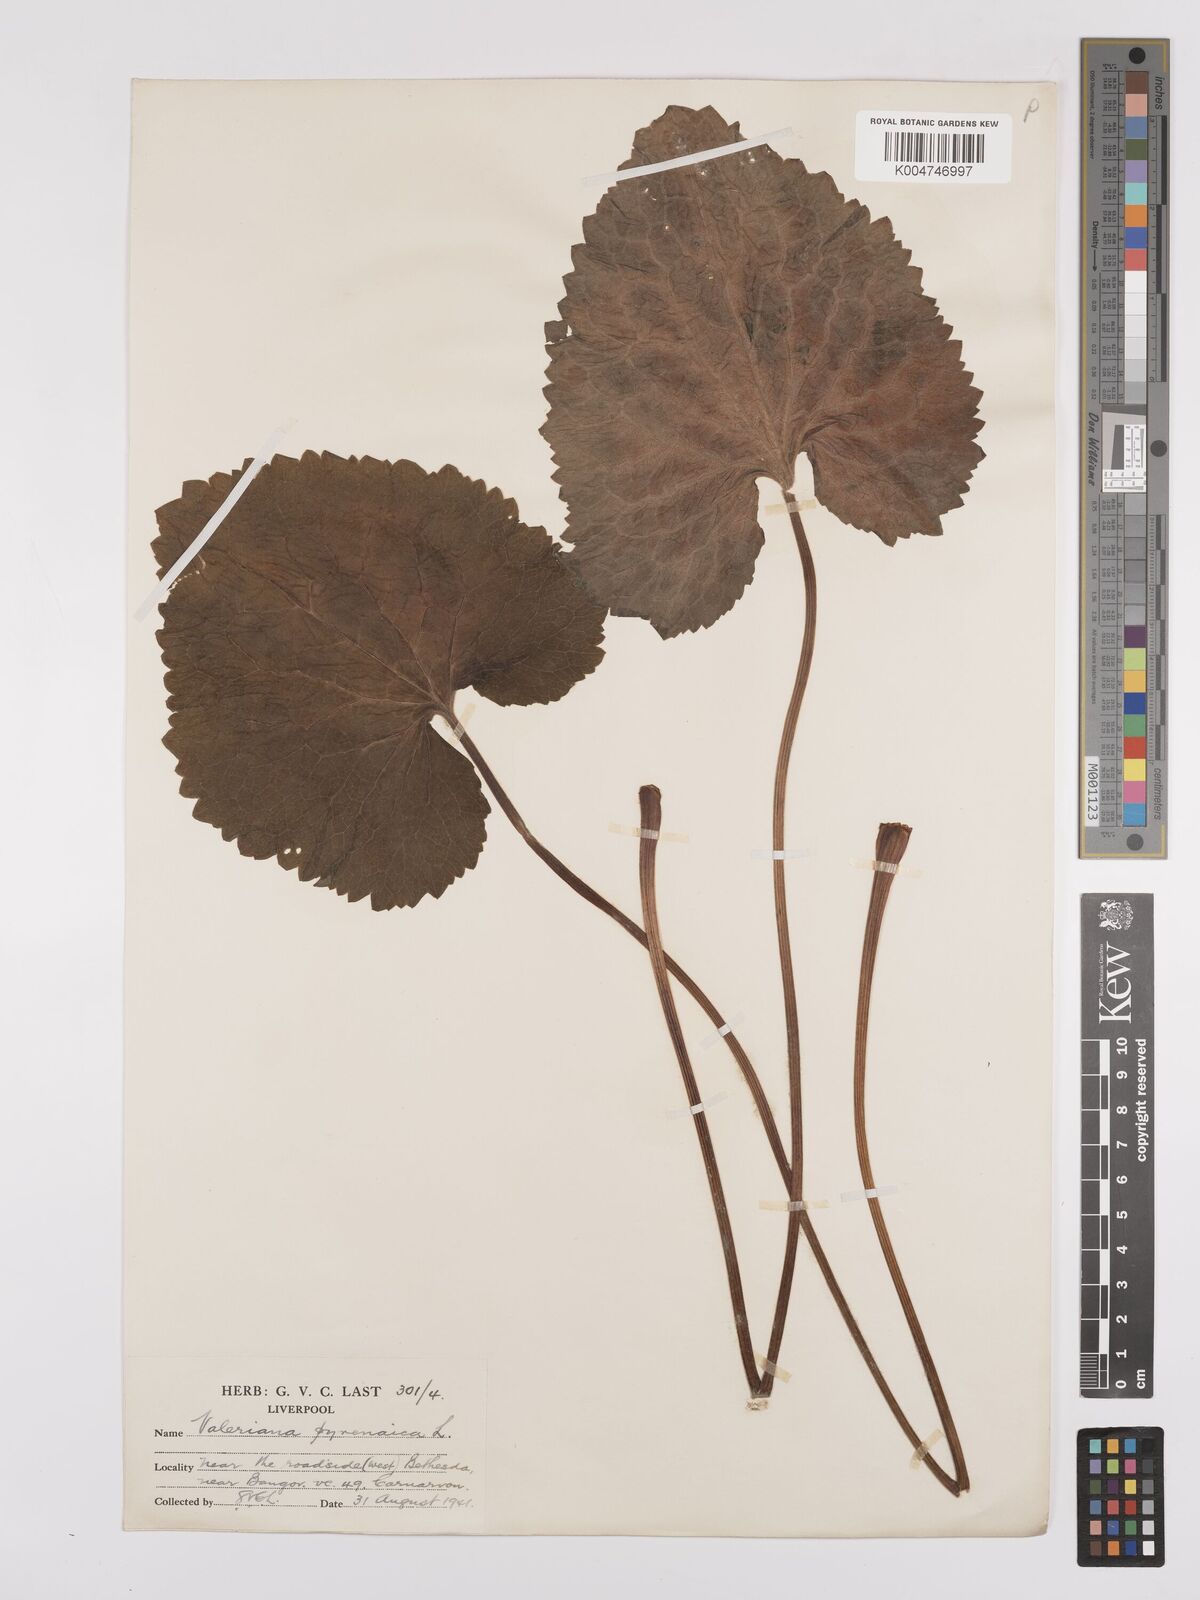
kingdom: Plantae
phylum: Tracheophyta
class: Magnoliopsida
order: Dipsacales
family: Caprifoliaceae
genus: Valeriana
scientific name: Valeriana pyrenaica
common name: Pyrenean valerian
